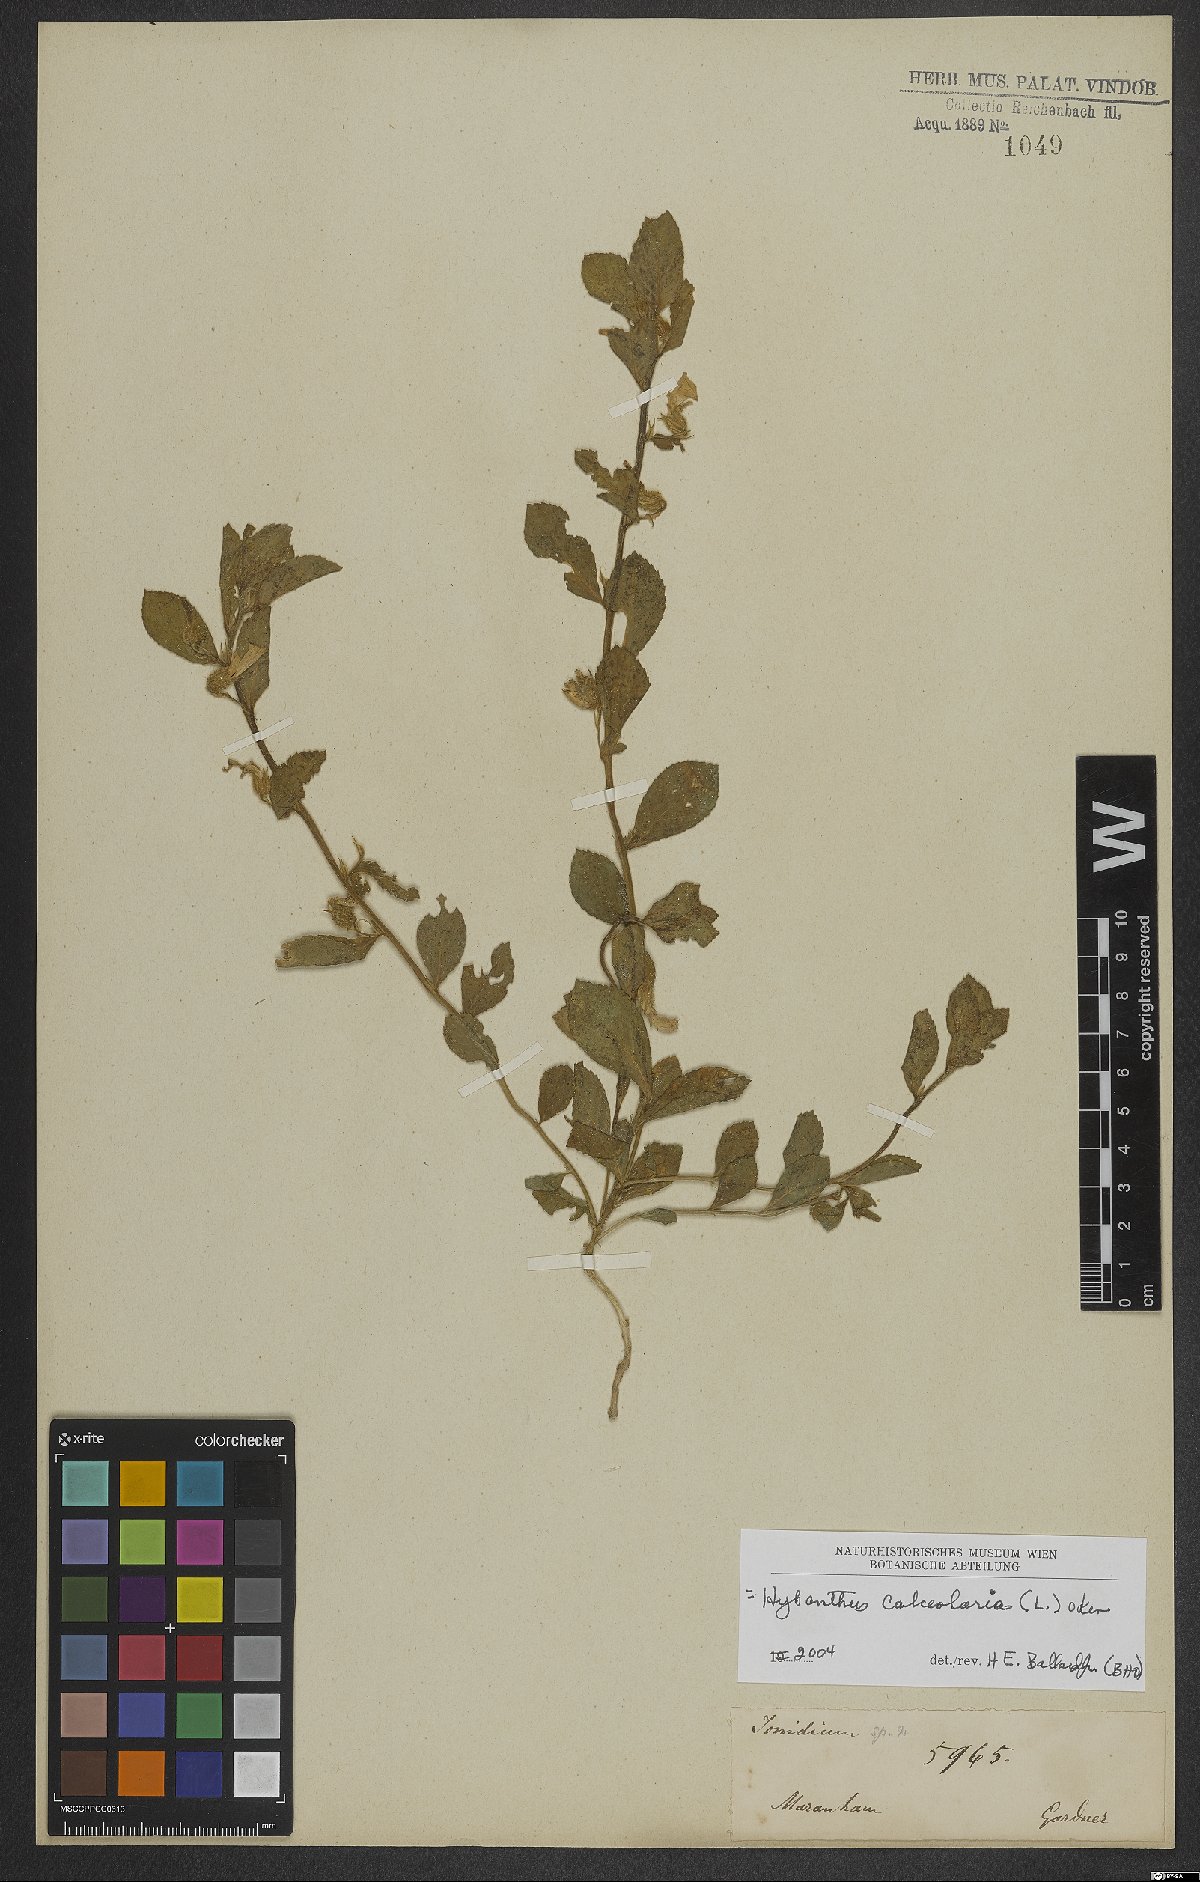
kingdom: Plantae
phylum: Tracheophyta
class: Magnoliopsida
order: Malpighiales
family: Violaceae
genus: Pombalia
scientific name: Pombalia calceolaria
